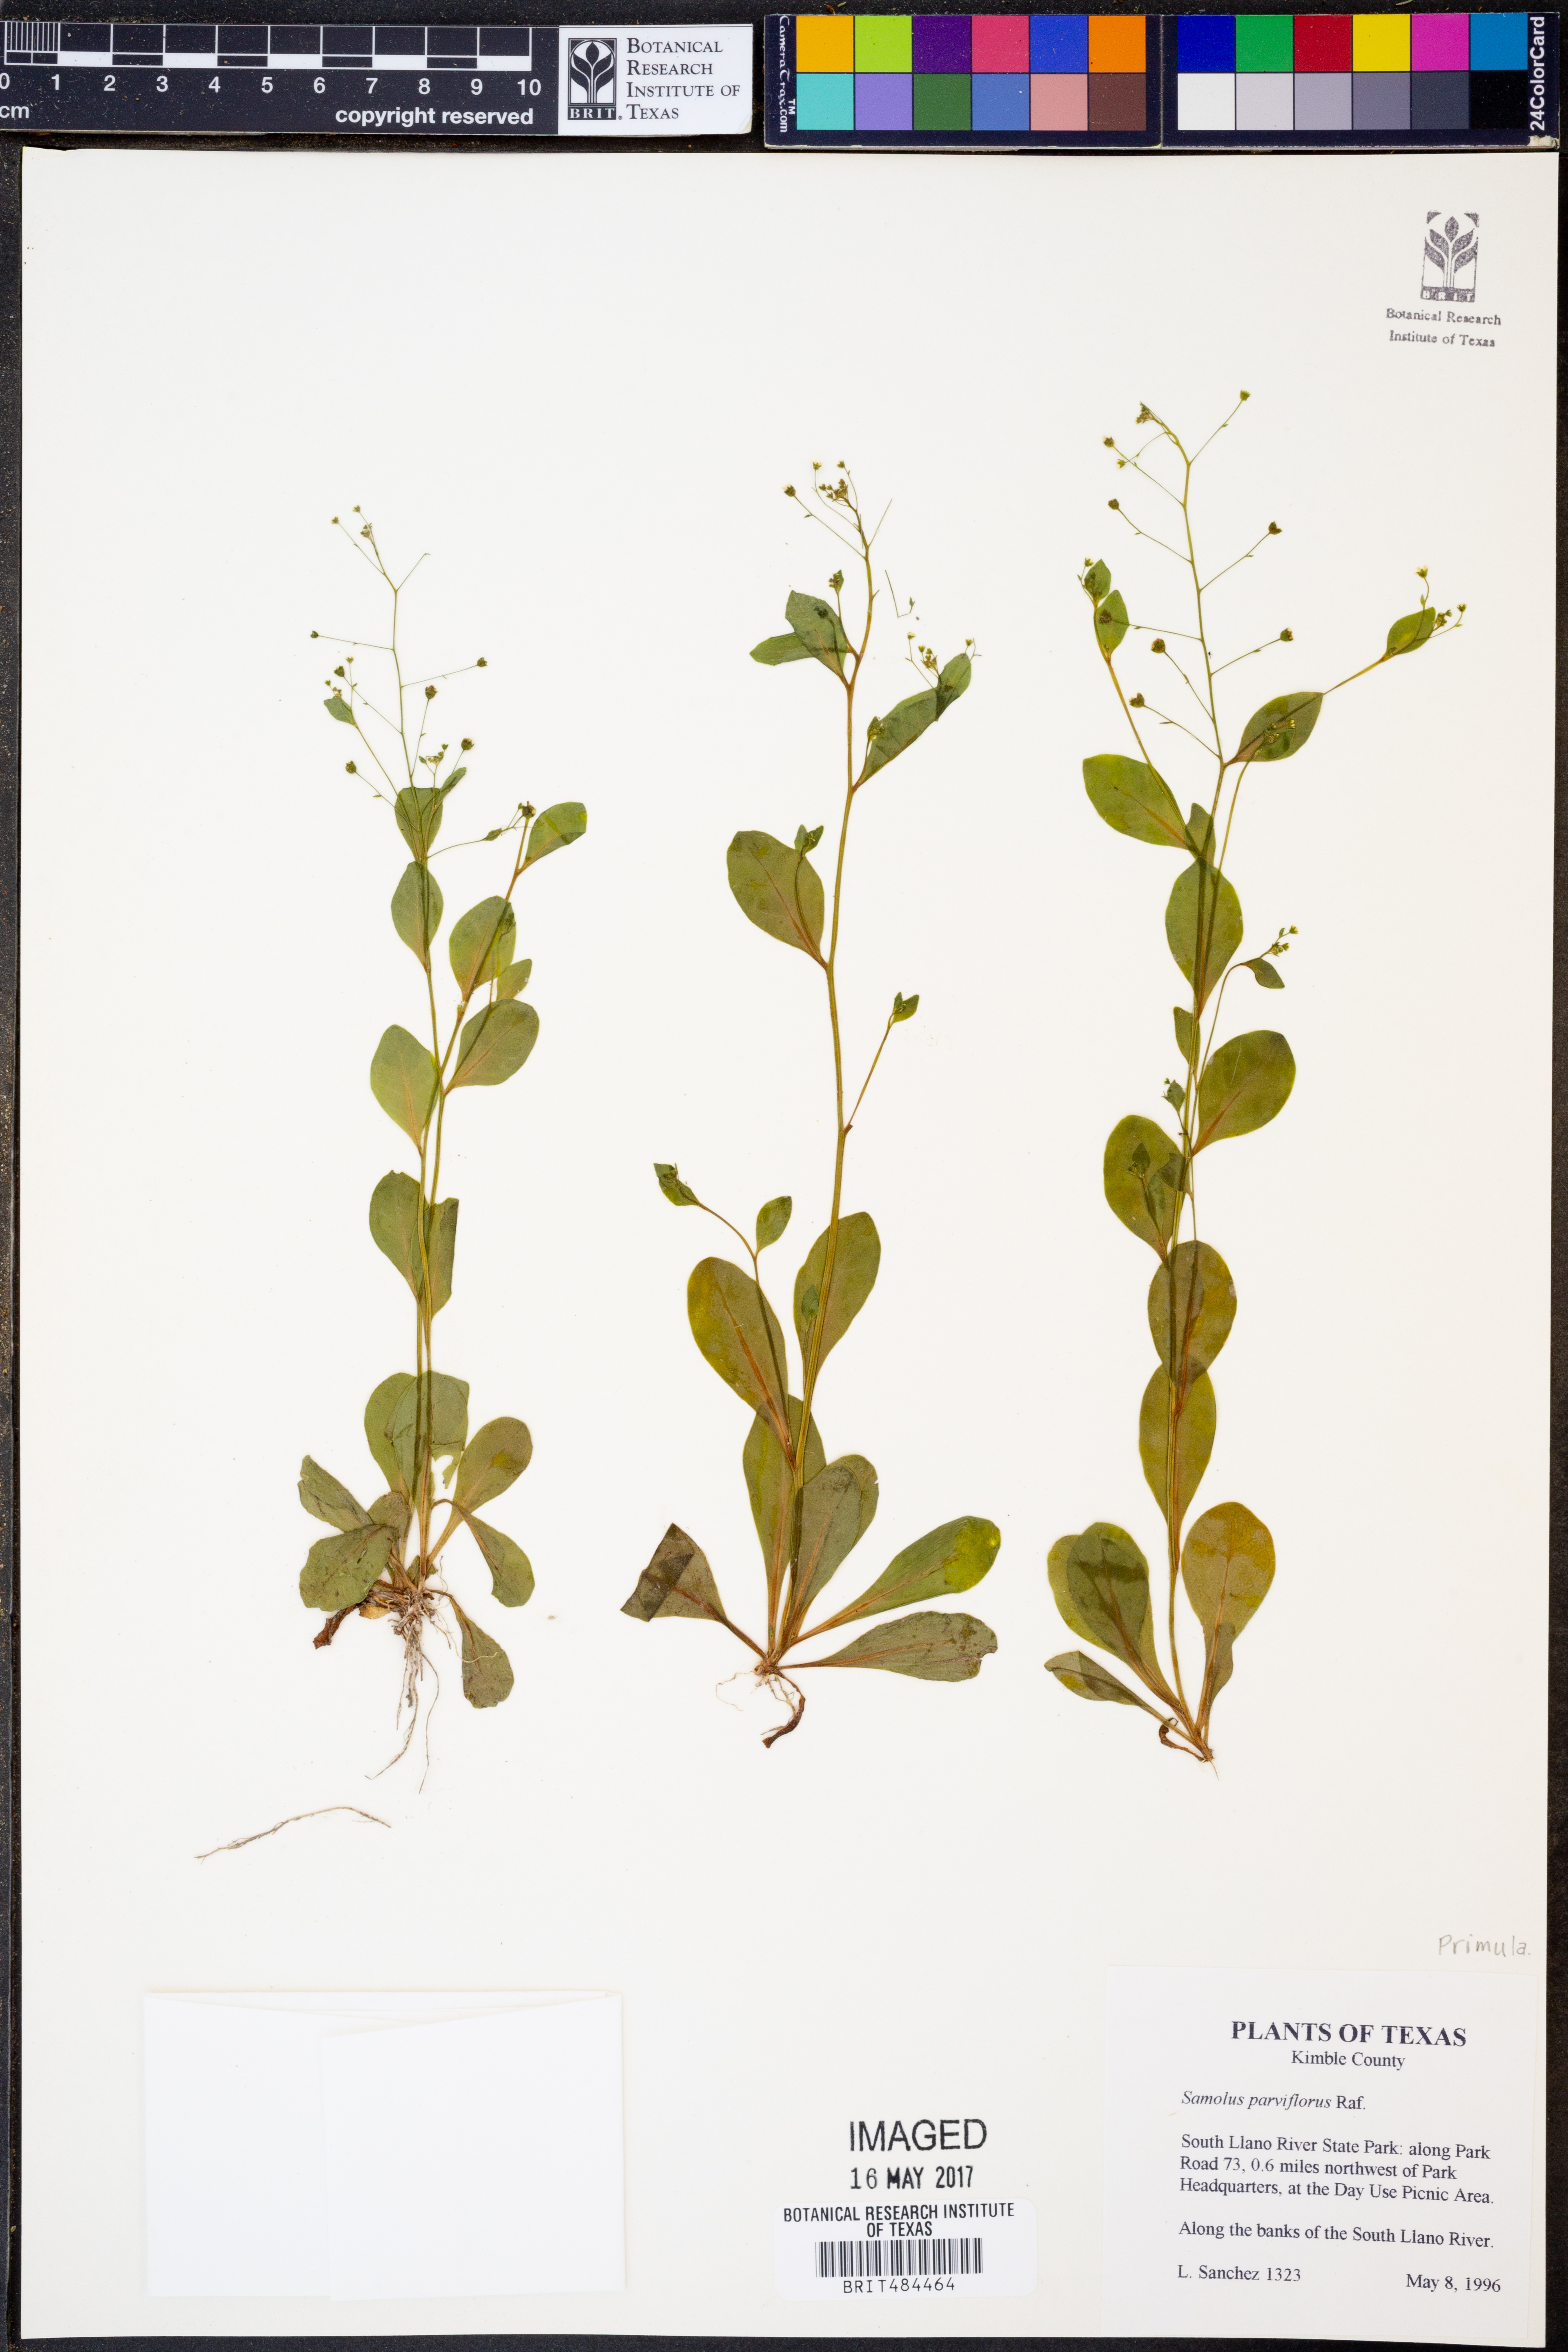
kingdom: Plantae
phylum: Tracheophyta
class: Magnoliopsida
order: Ericales
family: Primulaceae
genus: Samolus
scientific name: Samolus parviflorus
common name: False water pimpernel
